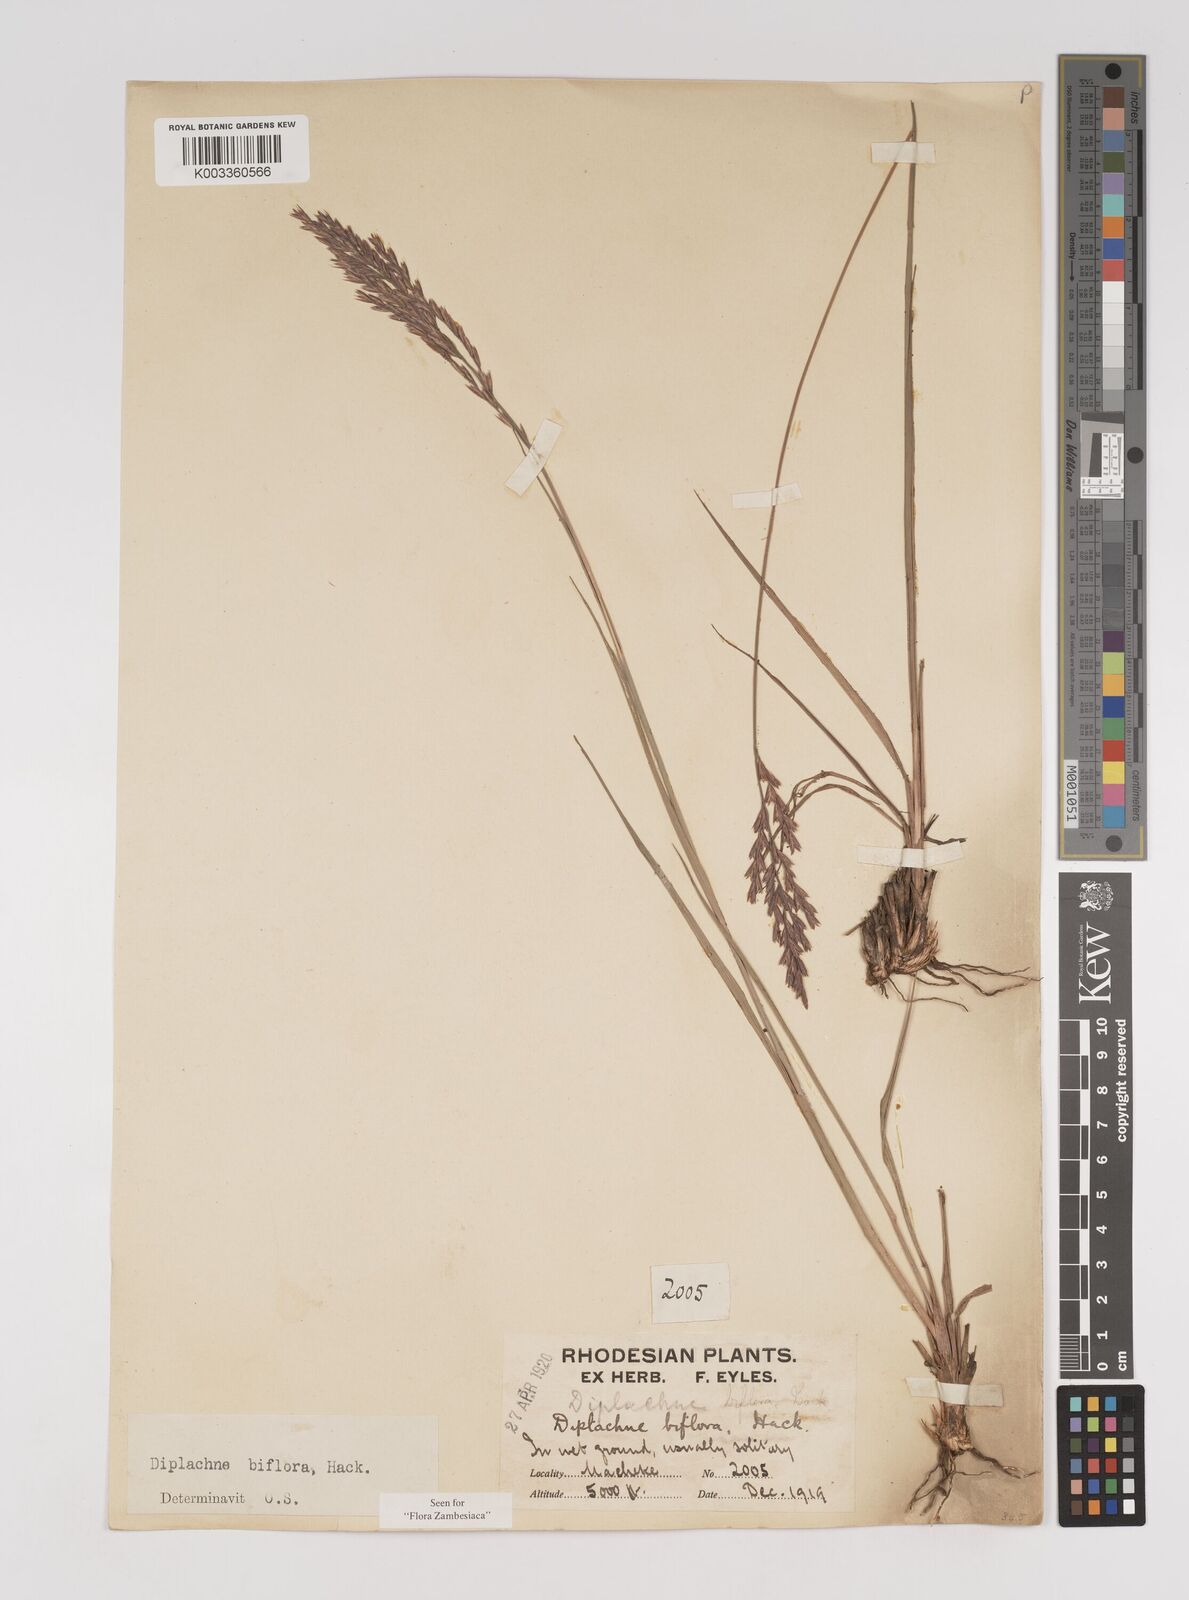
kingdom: Plantae
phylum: Tracheophyta
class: Liliopsida
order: Poales
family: Poaceae
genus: Bewsia
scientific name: Bewsia biflora
